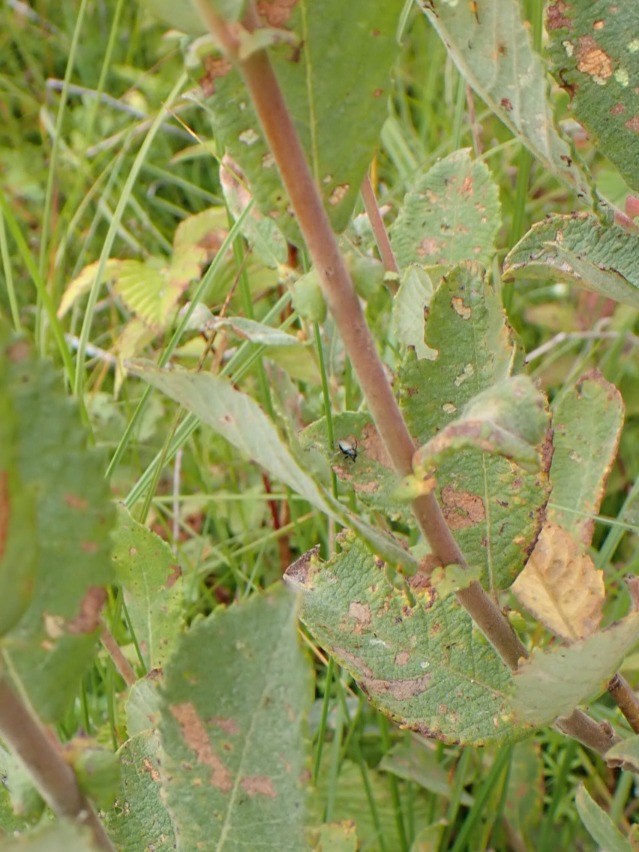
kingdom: Plantae
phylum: Tracheophyta
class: Magnoliopsida
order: Malpighiales
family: Salicaceae
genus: Salix
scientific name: Salix cinerea
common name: Grå-pil
